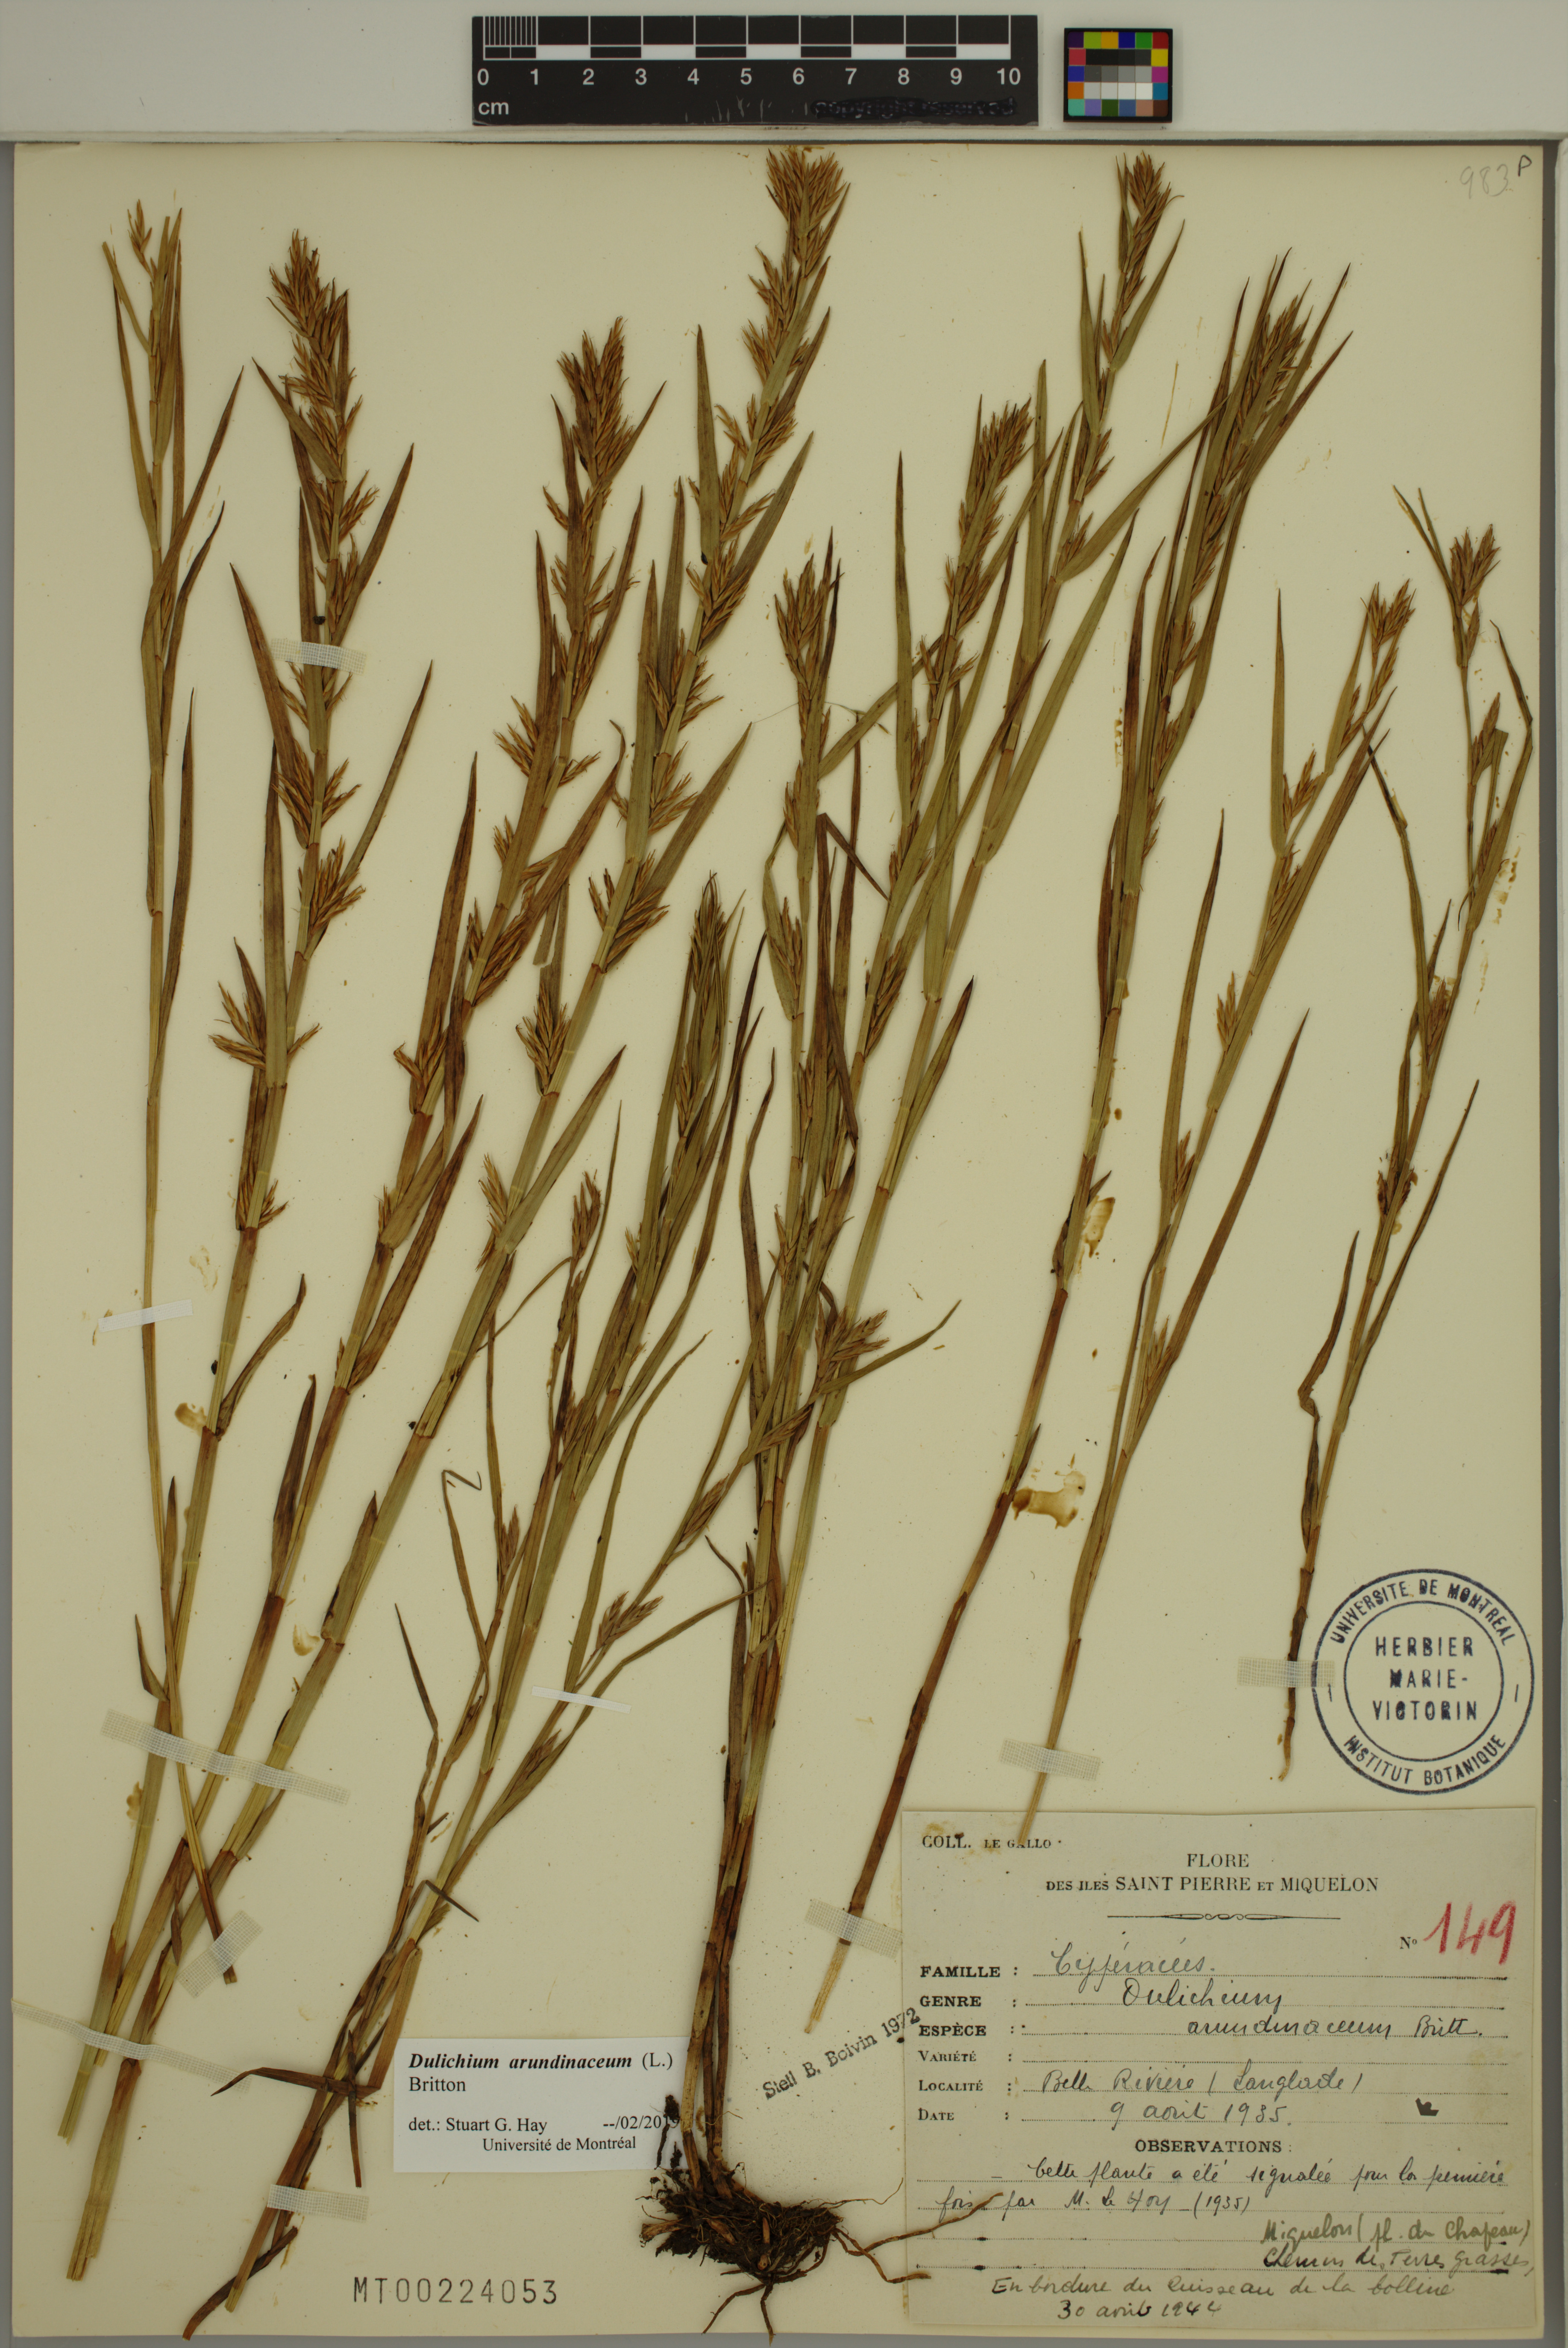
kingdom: Plantae
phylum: Tracheophyta
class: Liliopsida
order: Poales
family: Cyperaceae
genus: Dulichium
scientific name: Dulichium arundinaceum
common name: Three-way sedge
